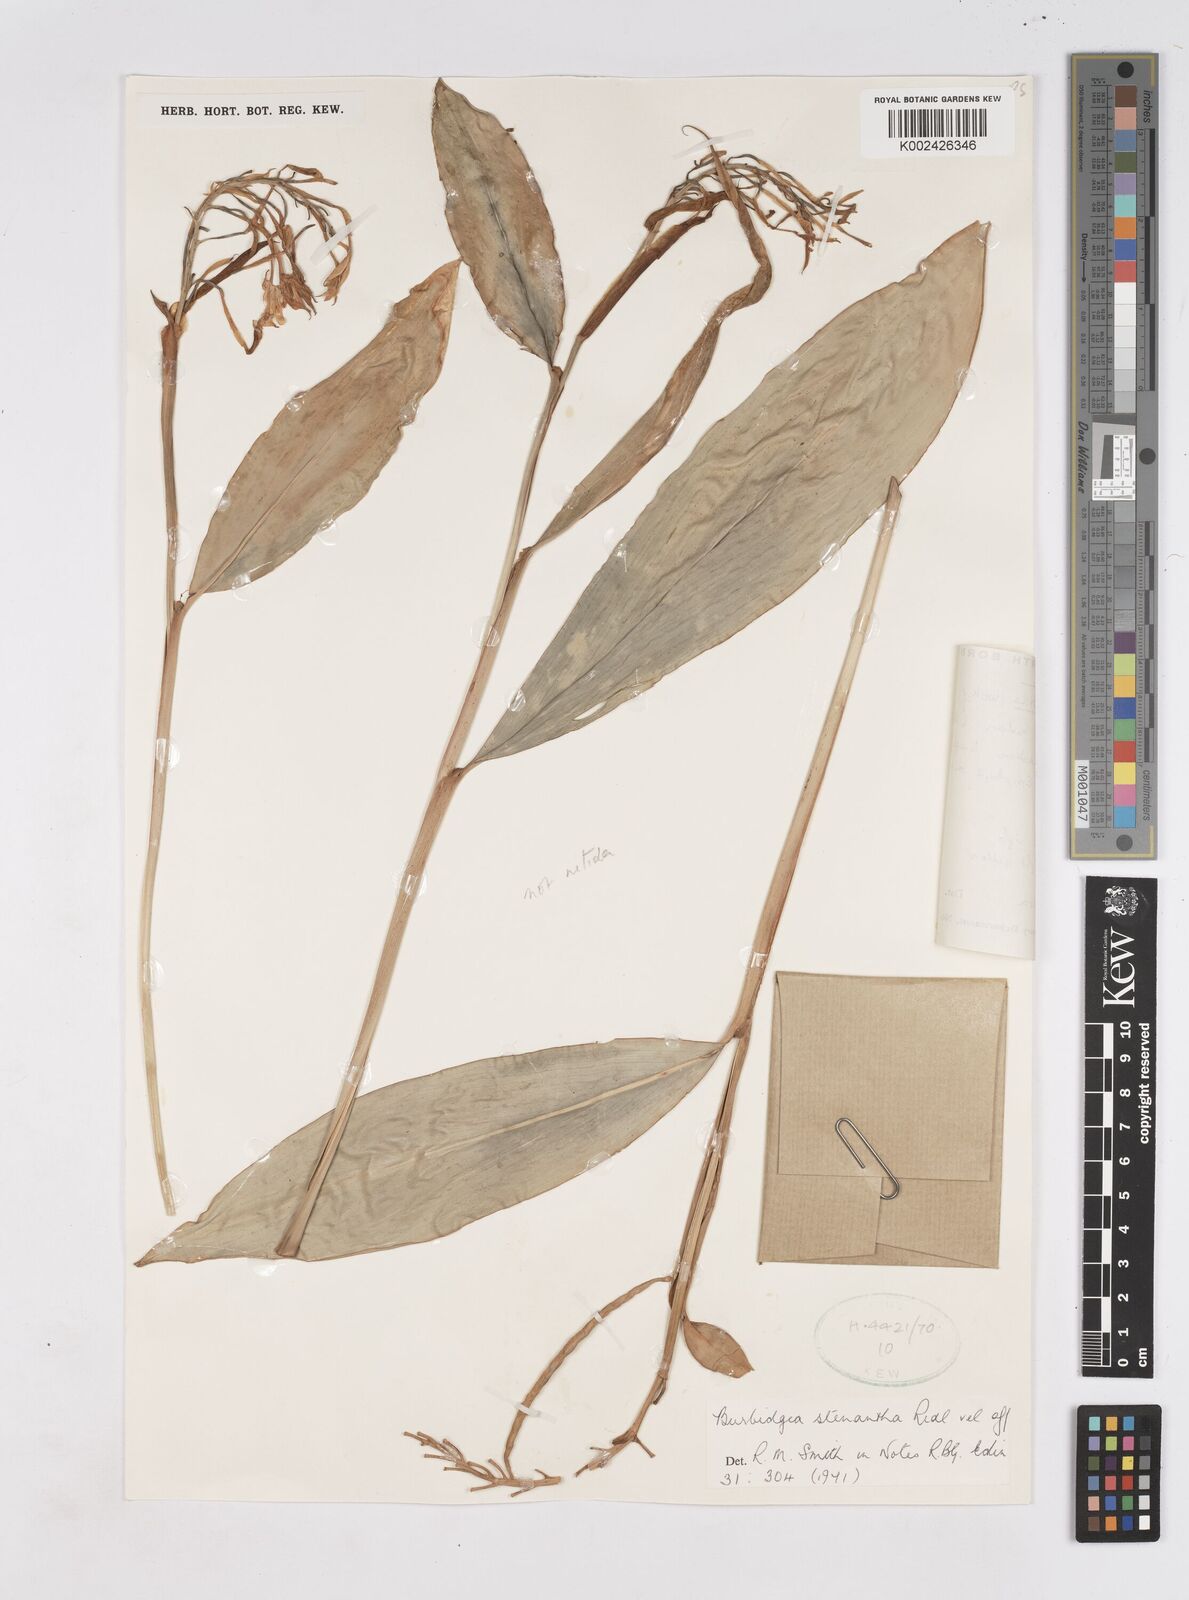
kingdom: Plantae
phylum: Tracheophyta
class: Liliopsida
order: Zingiberales
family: Zingiberaceae
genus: Burbidgea
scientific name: Burbidgea stenantha
